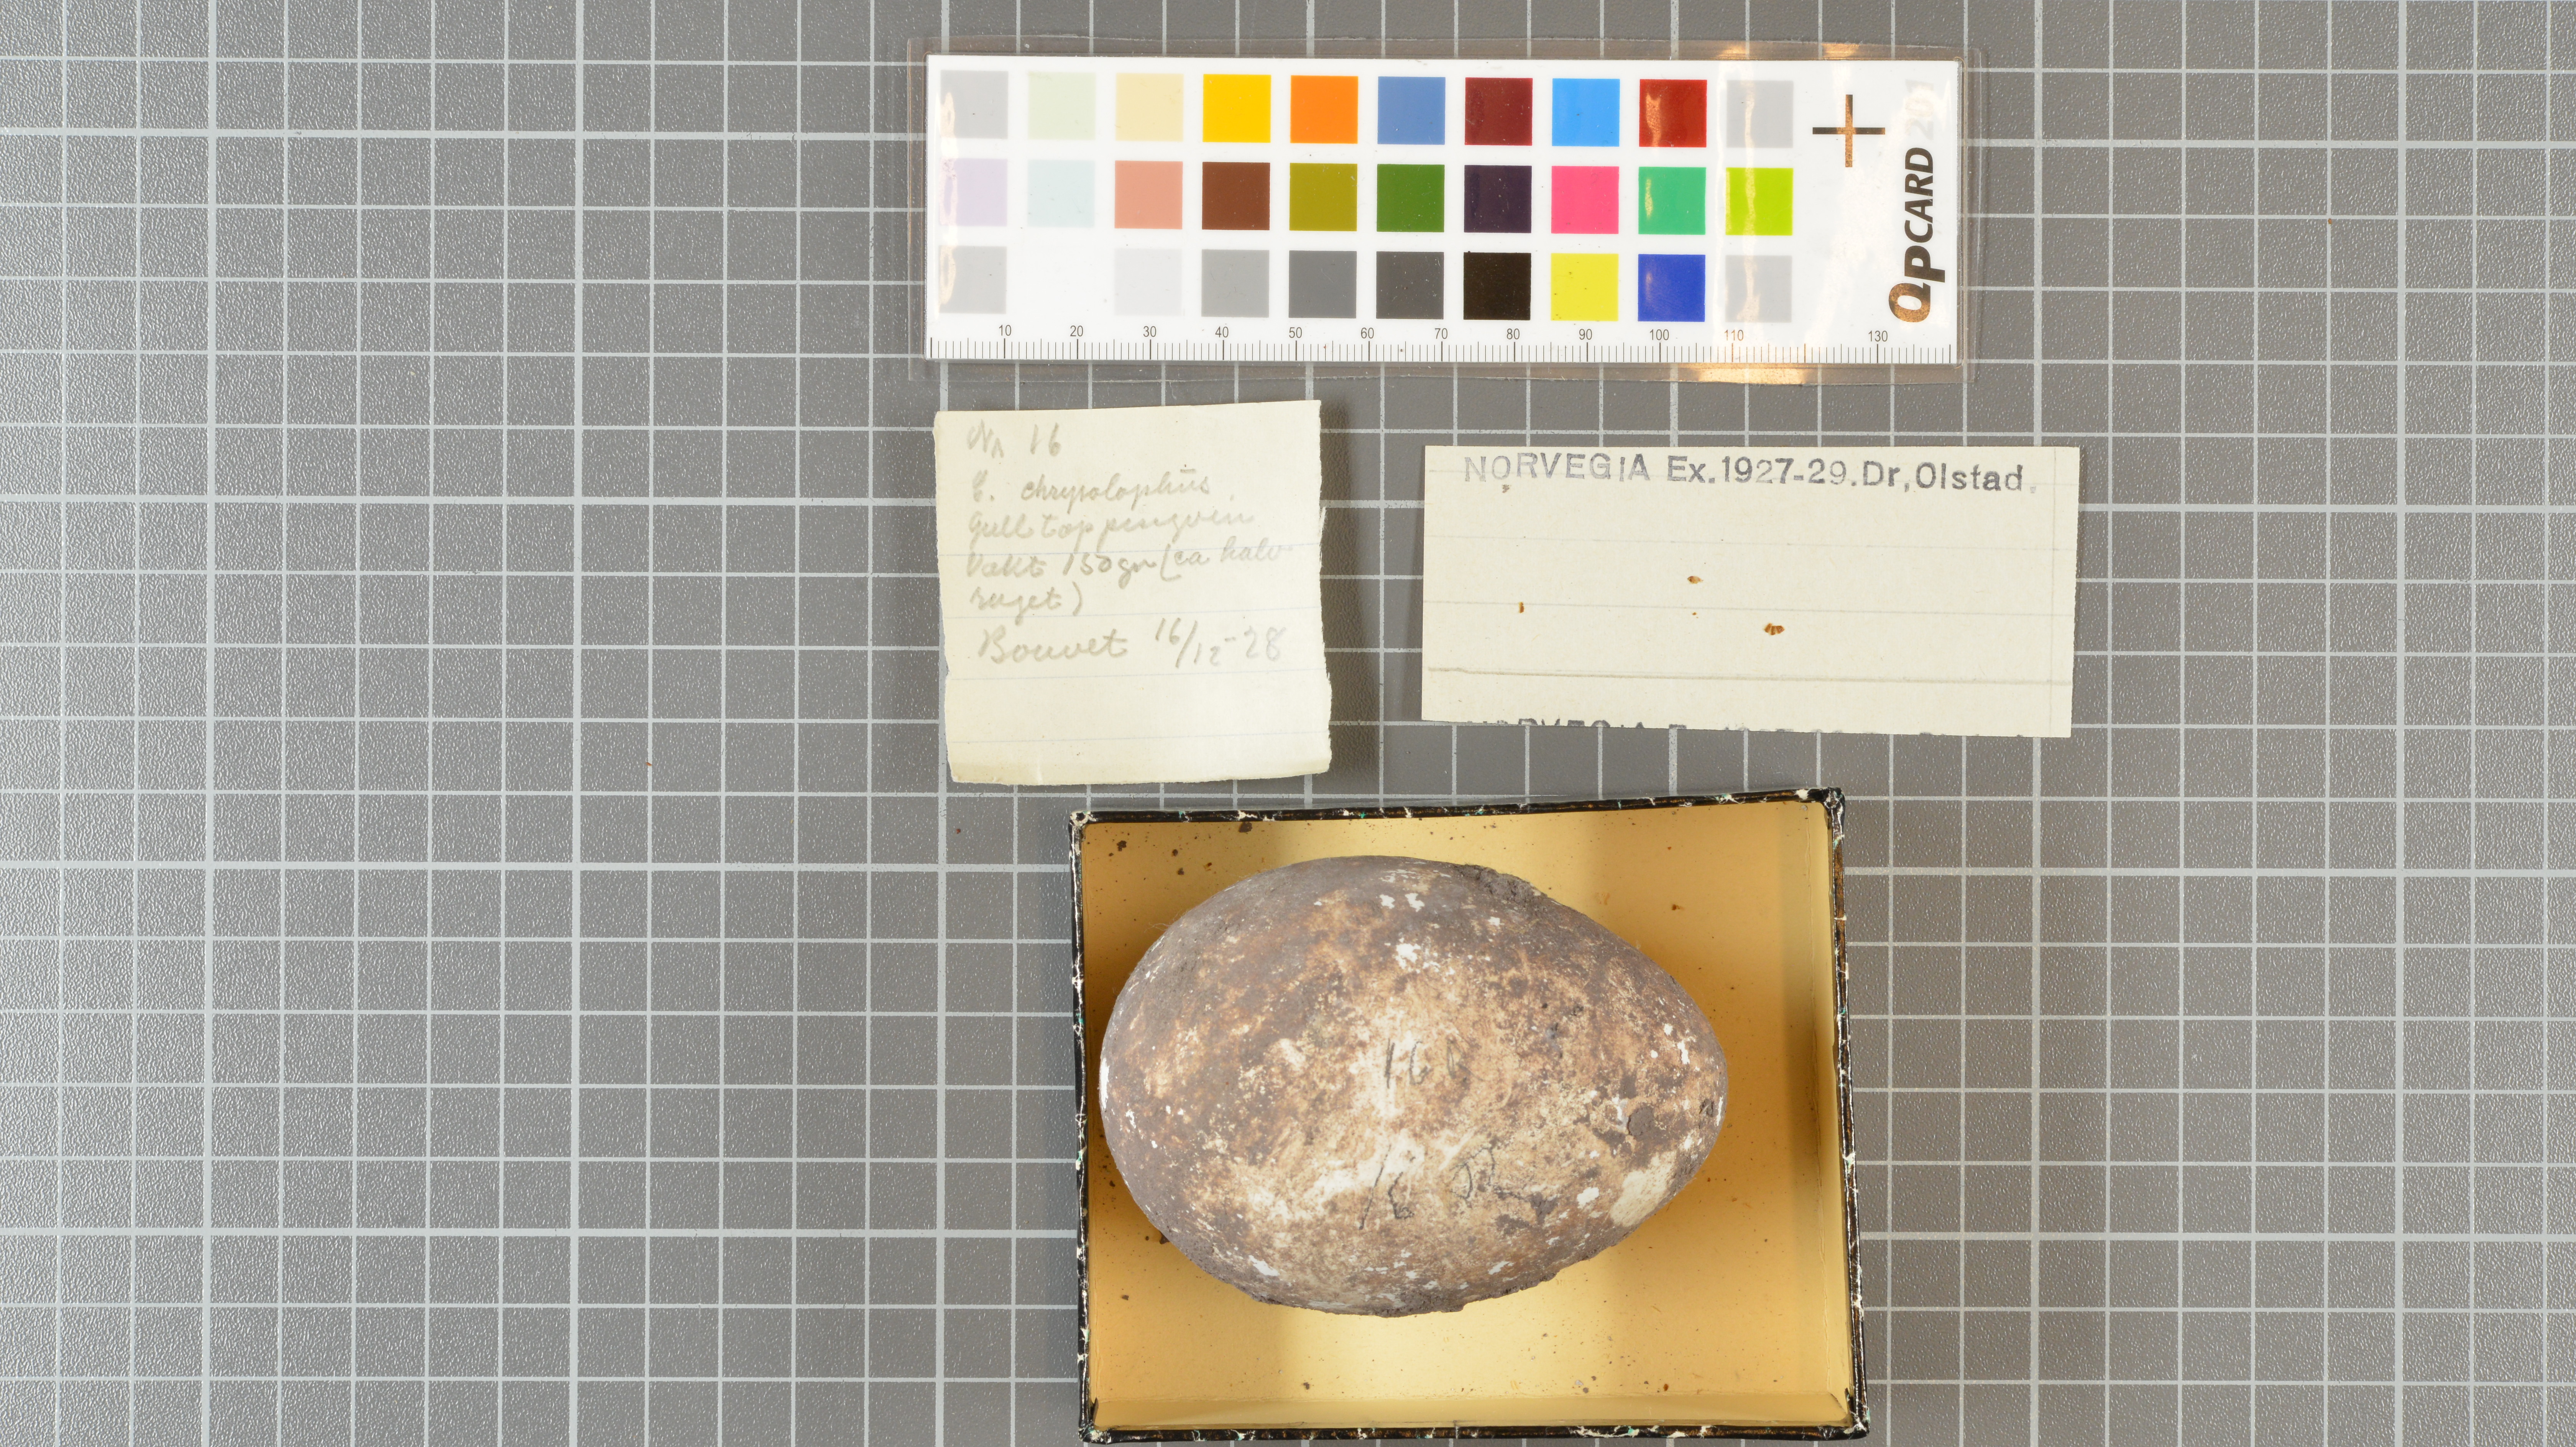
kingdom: Animalia
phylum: Chordata
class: Aves
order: Sphenisciformes
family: Spheniscidae
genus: Eudyptes
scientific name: Eudyptes chrysolophus
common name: Macaroni penguin
